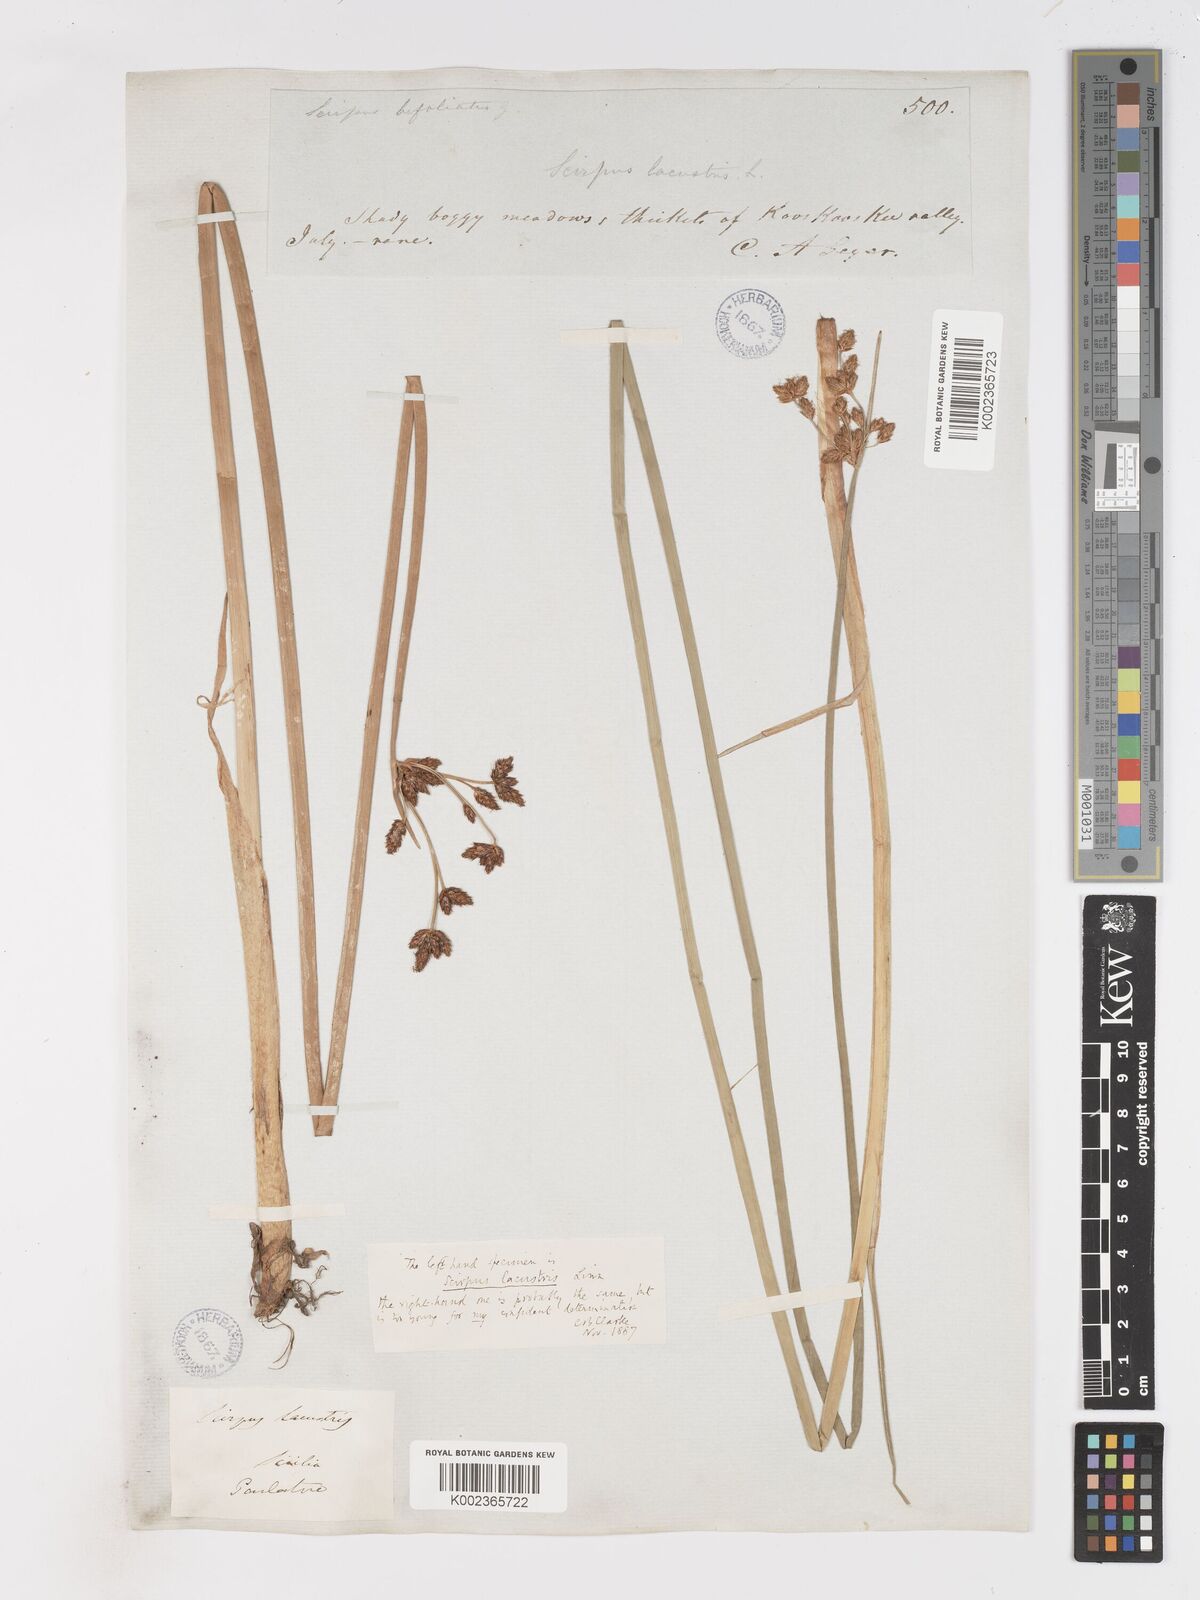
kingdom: Plantae
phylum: Tracheophyta
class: Liliopsida
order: Poales
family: Cyperaceae
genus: Schoenoplectus
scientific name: Schoenoplectus lacustris
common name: Common club-rush
